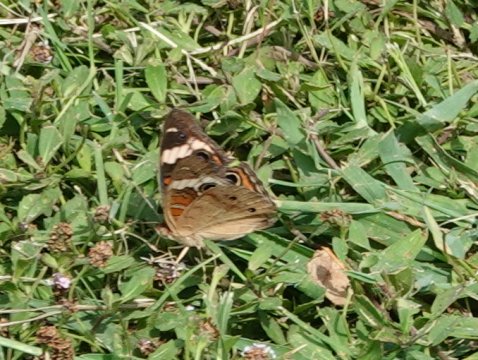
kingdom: Animalia
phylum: Arthropoda
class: Insecta
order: Lepidoptera
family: Nymphalidae
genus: Junonia
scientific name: Junonia coenia
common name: Common Buckeye
